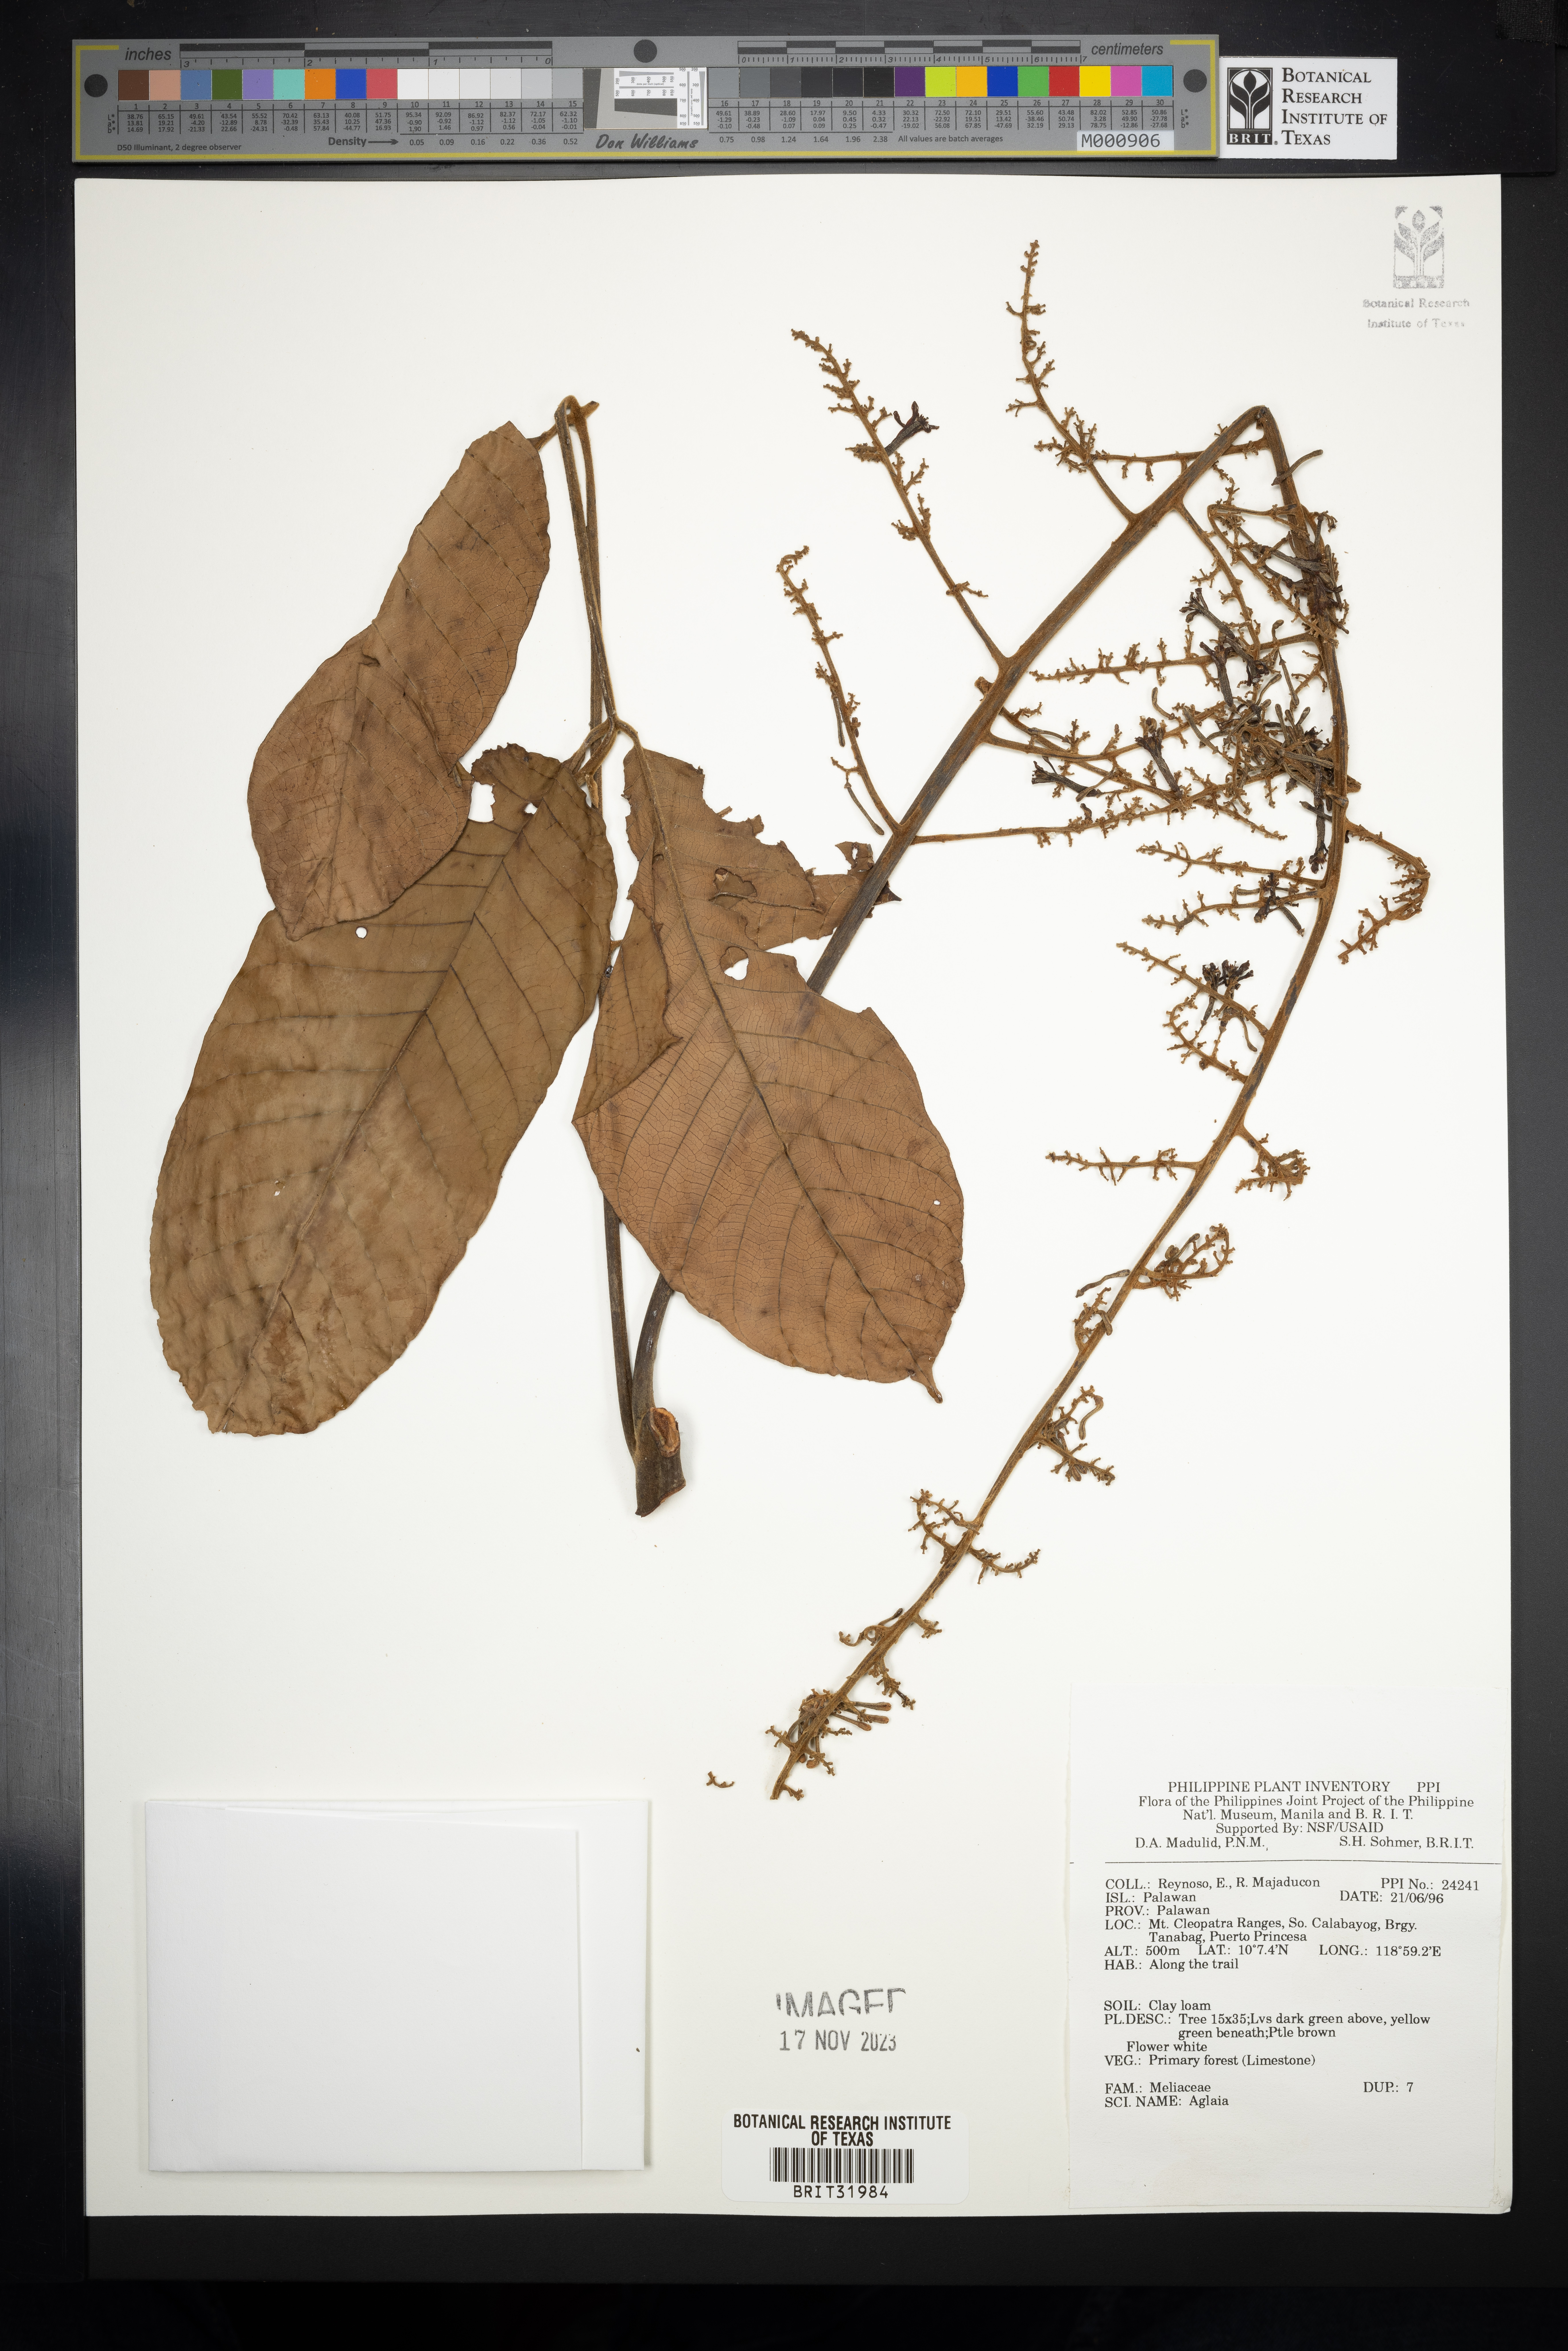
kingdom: Plantae
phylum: Tracheophyta
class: Magnoliopsida
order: Sapindales
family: Meliaceae
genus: Aglaia
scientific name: Aglaia
